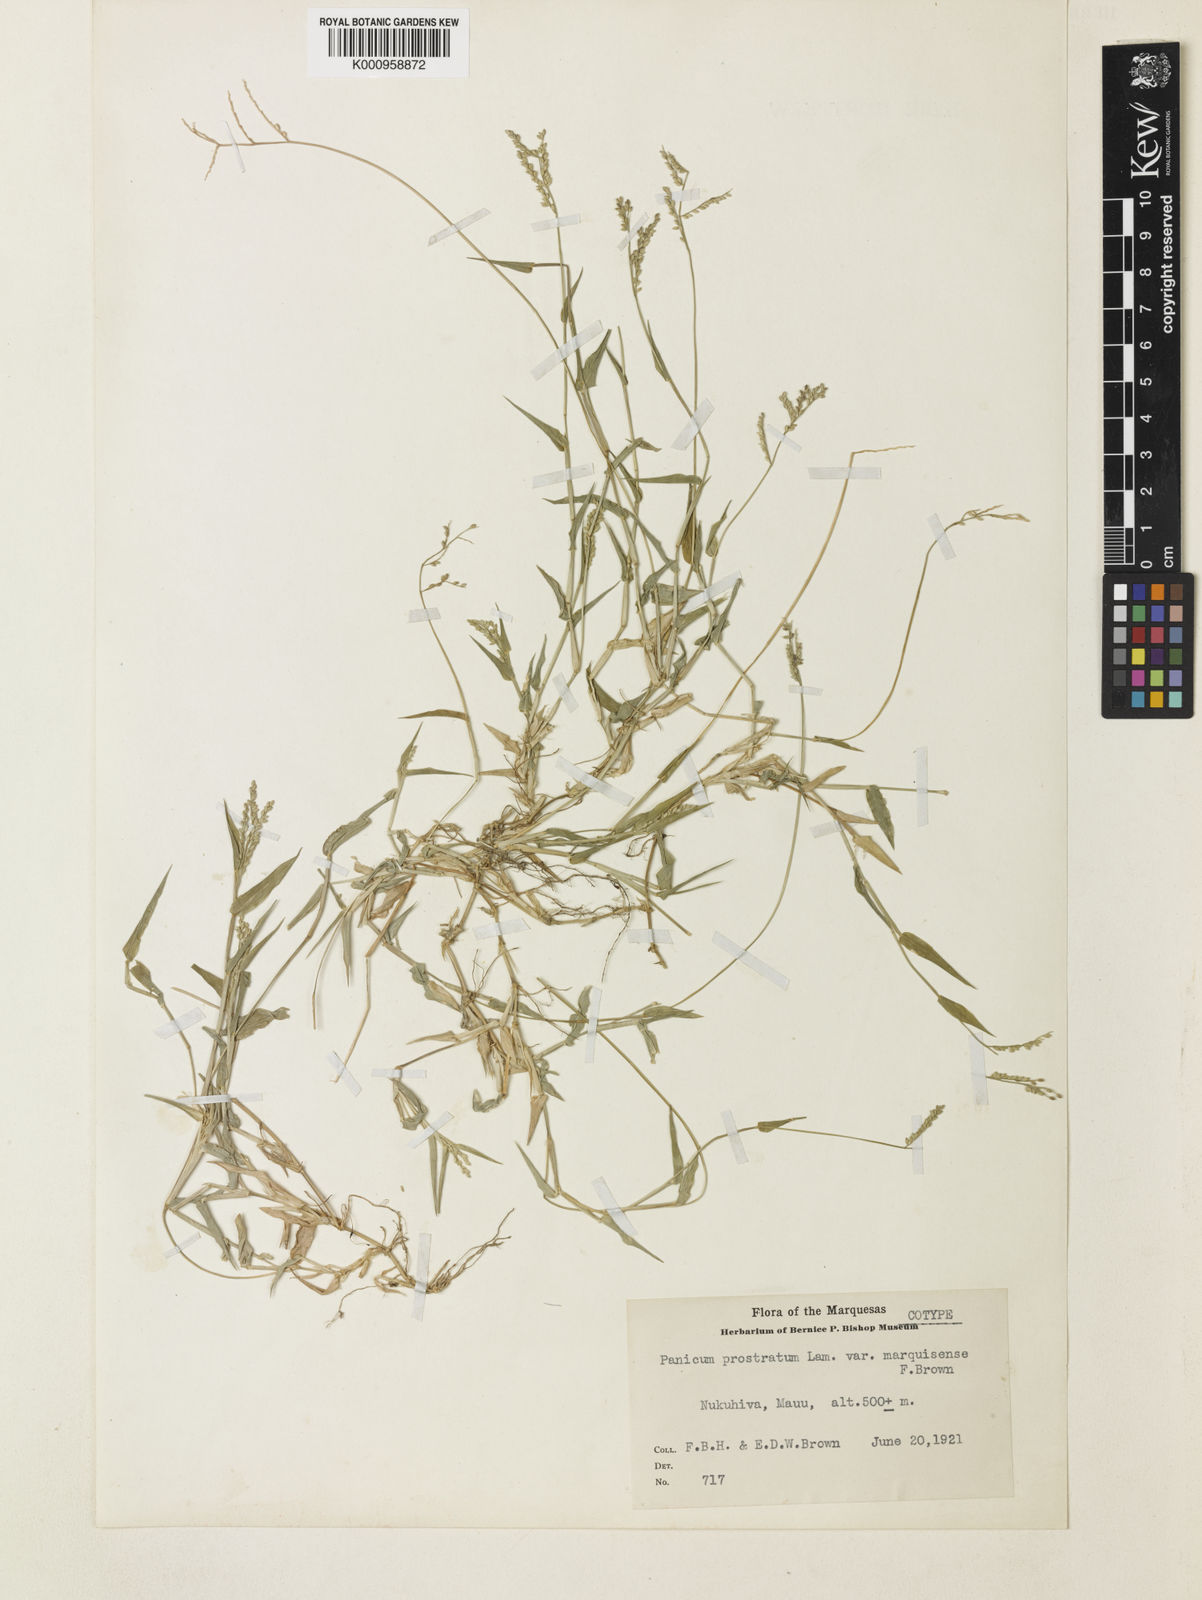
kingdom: Plantae
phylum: Tracheophyta
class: Liliopsida
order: Poales
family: Poaceae
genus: Urochloa
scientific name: Urochloa reptans
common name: Sprawling signalgrass
